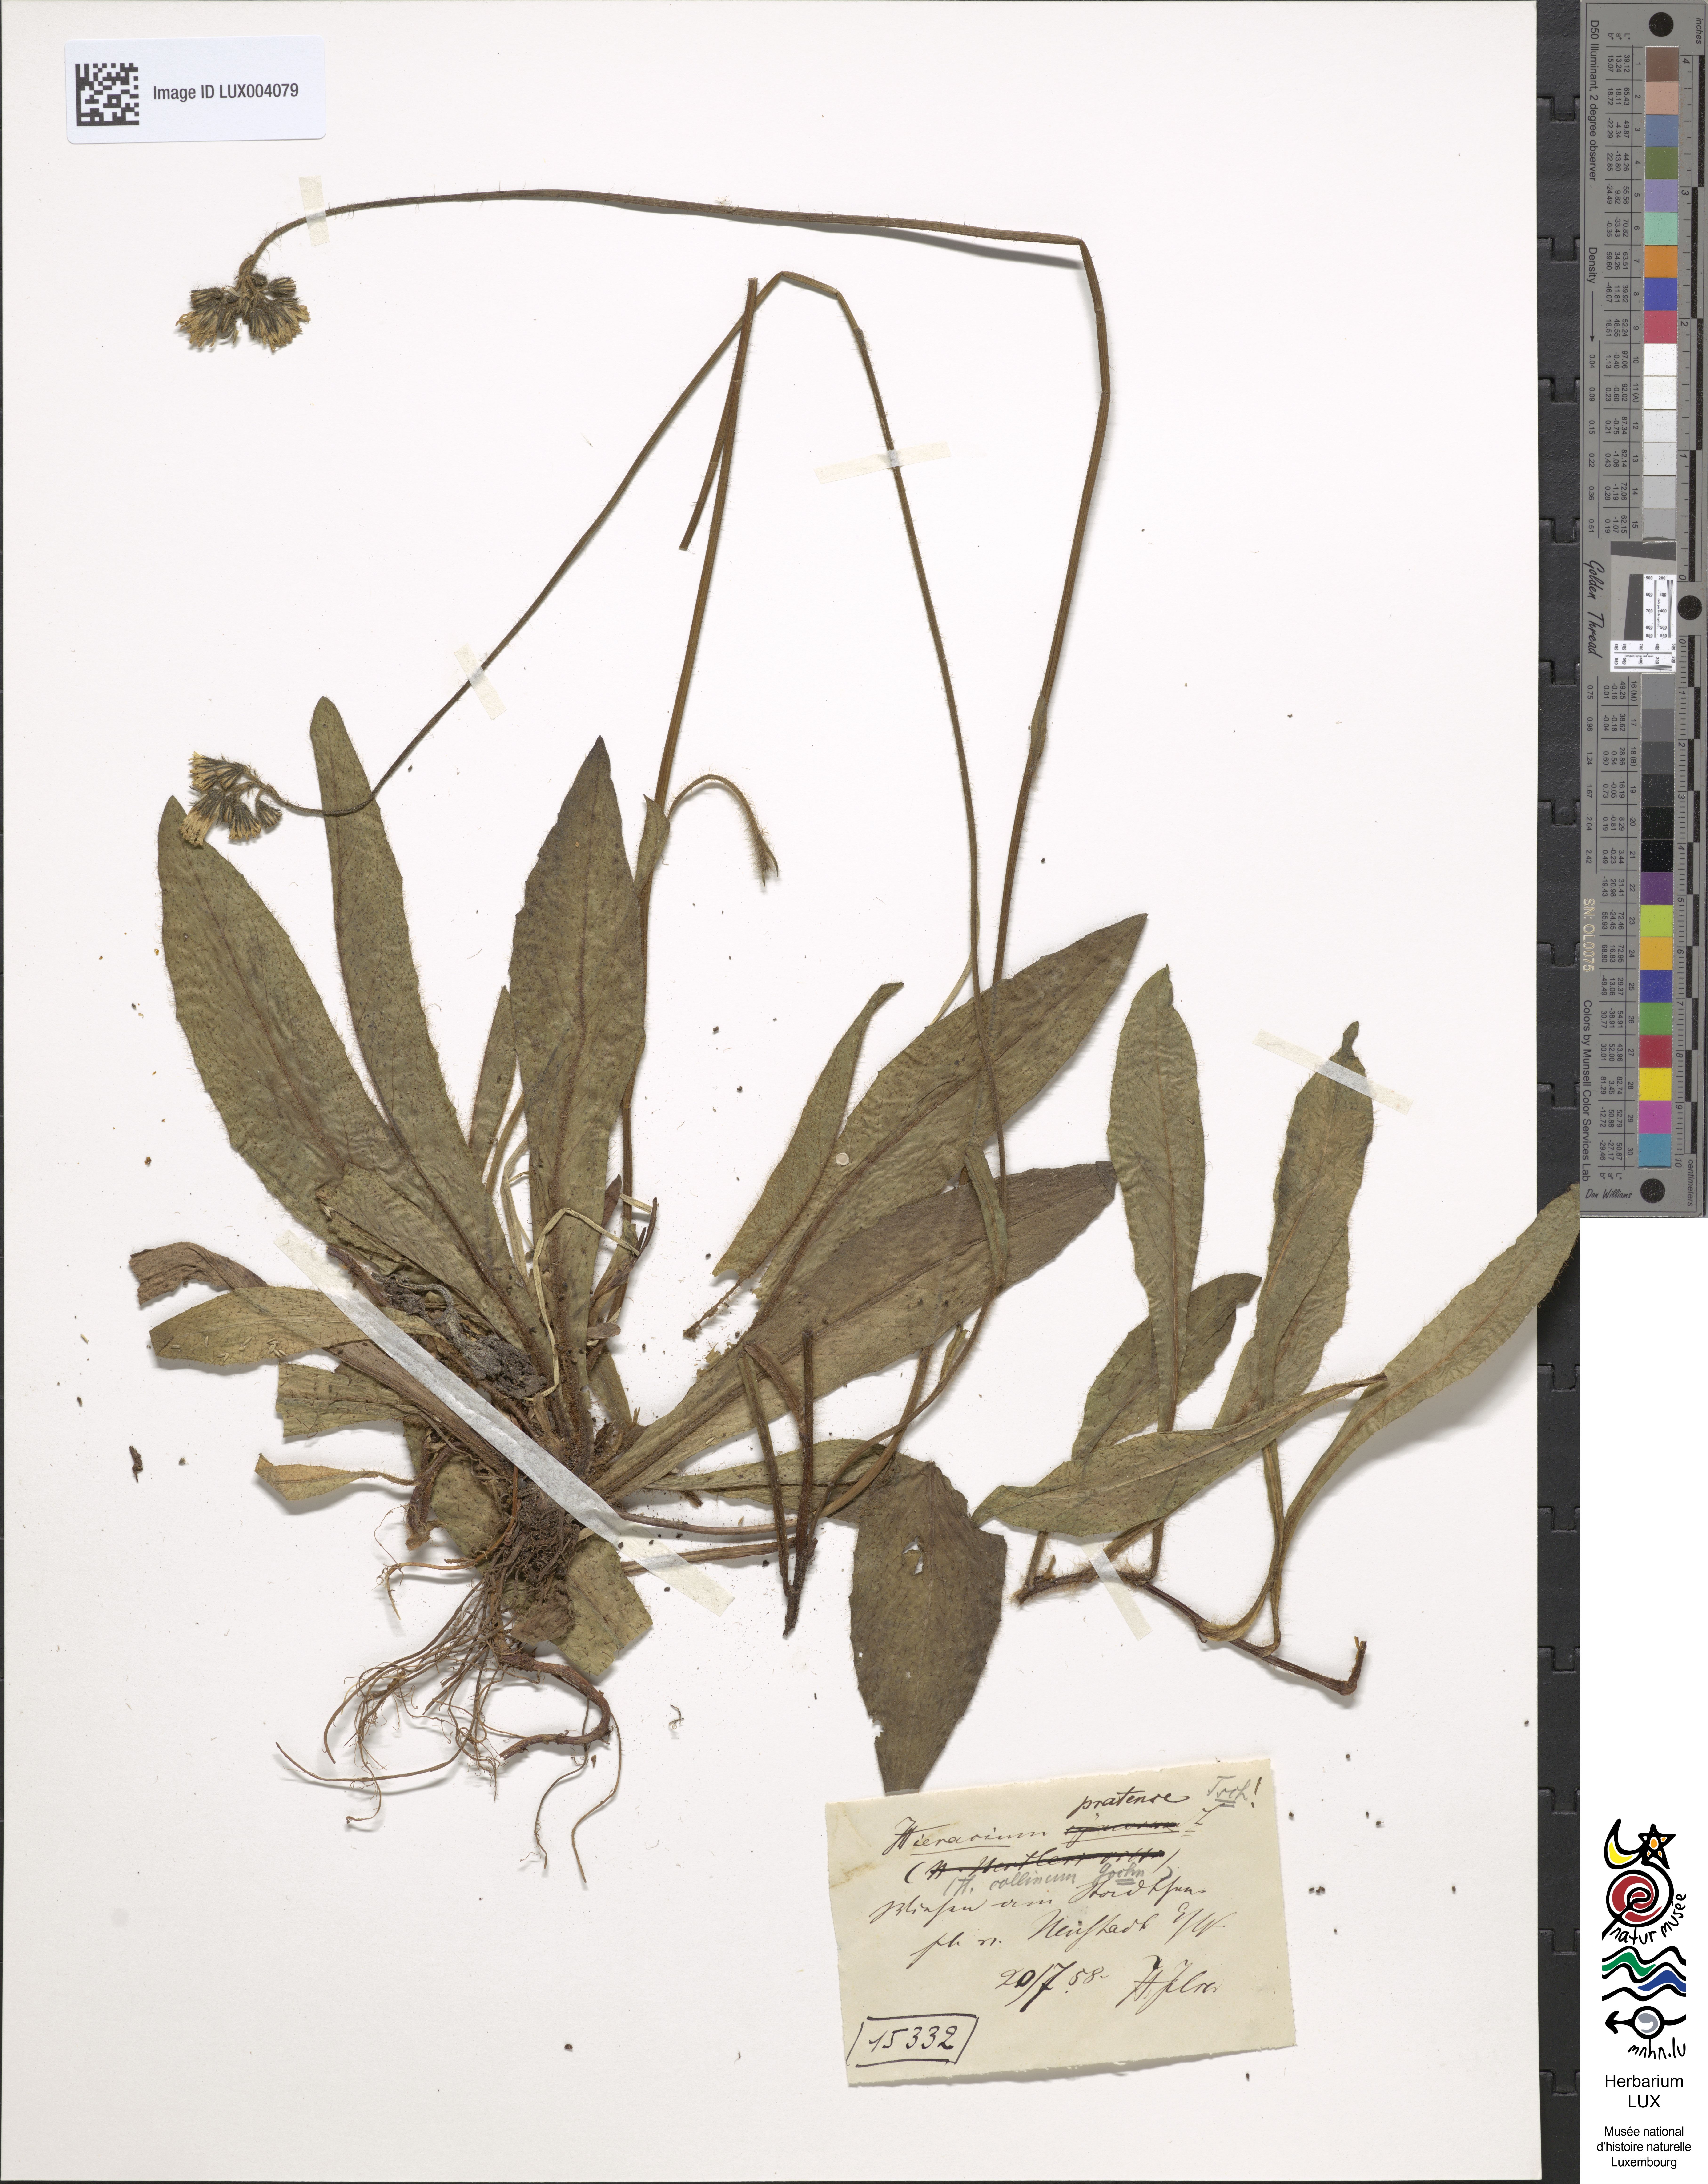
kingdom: Plantae
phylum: Tracheophyta
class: Magnoliopsida
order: Asterales
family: Asteraceae
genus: Pilosella
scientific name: Pilosella caespitosa
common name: Yellow fox-and-cubs
